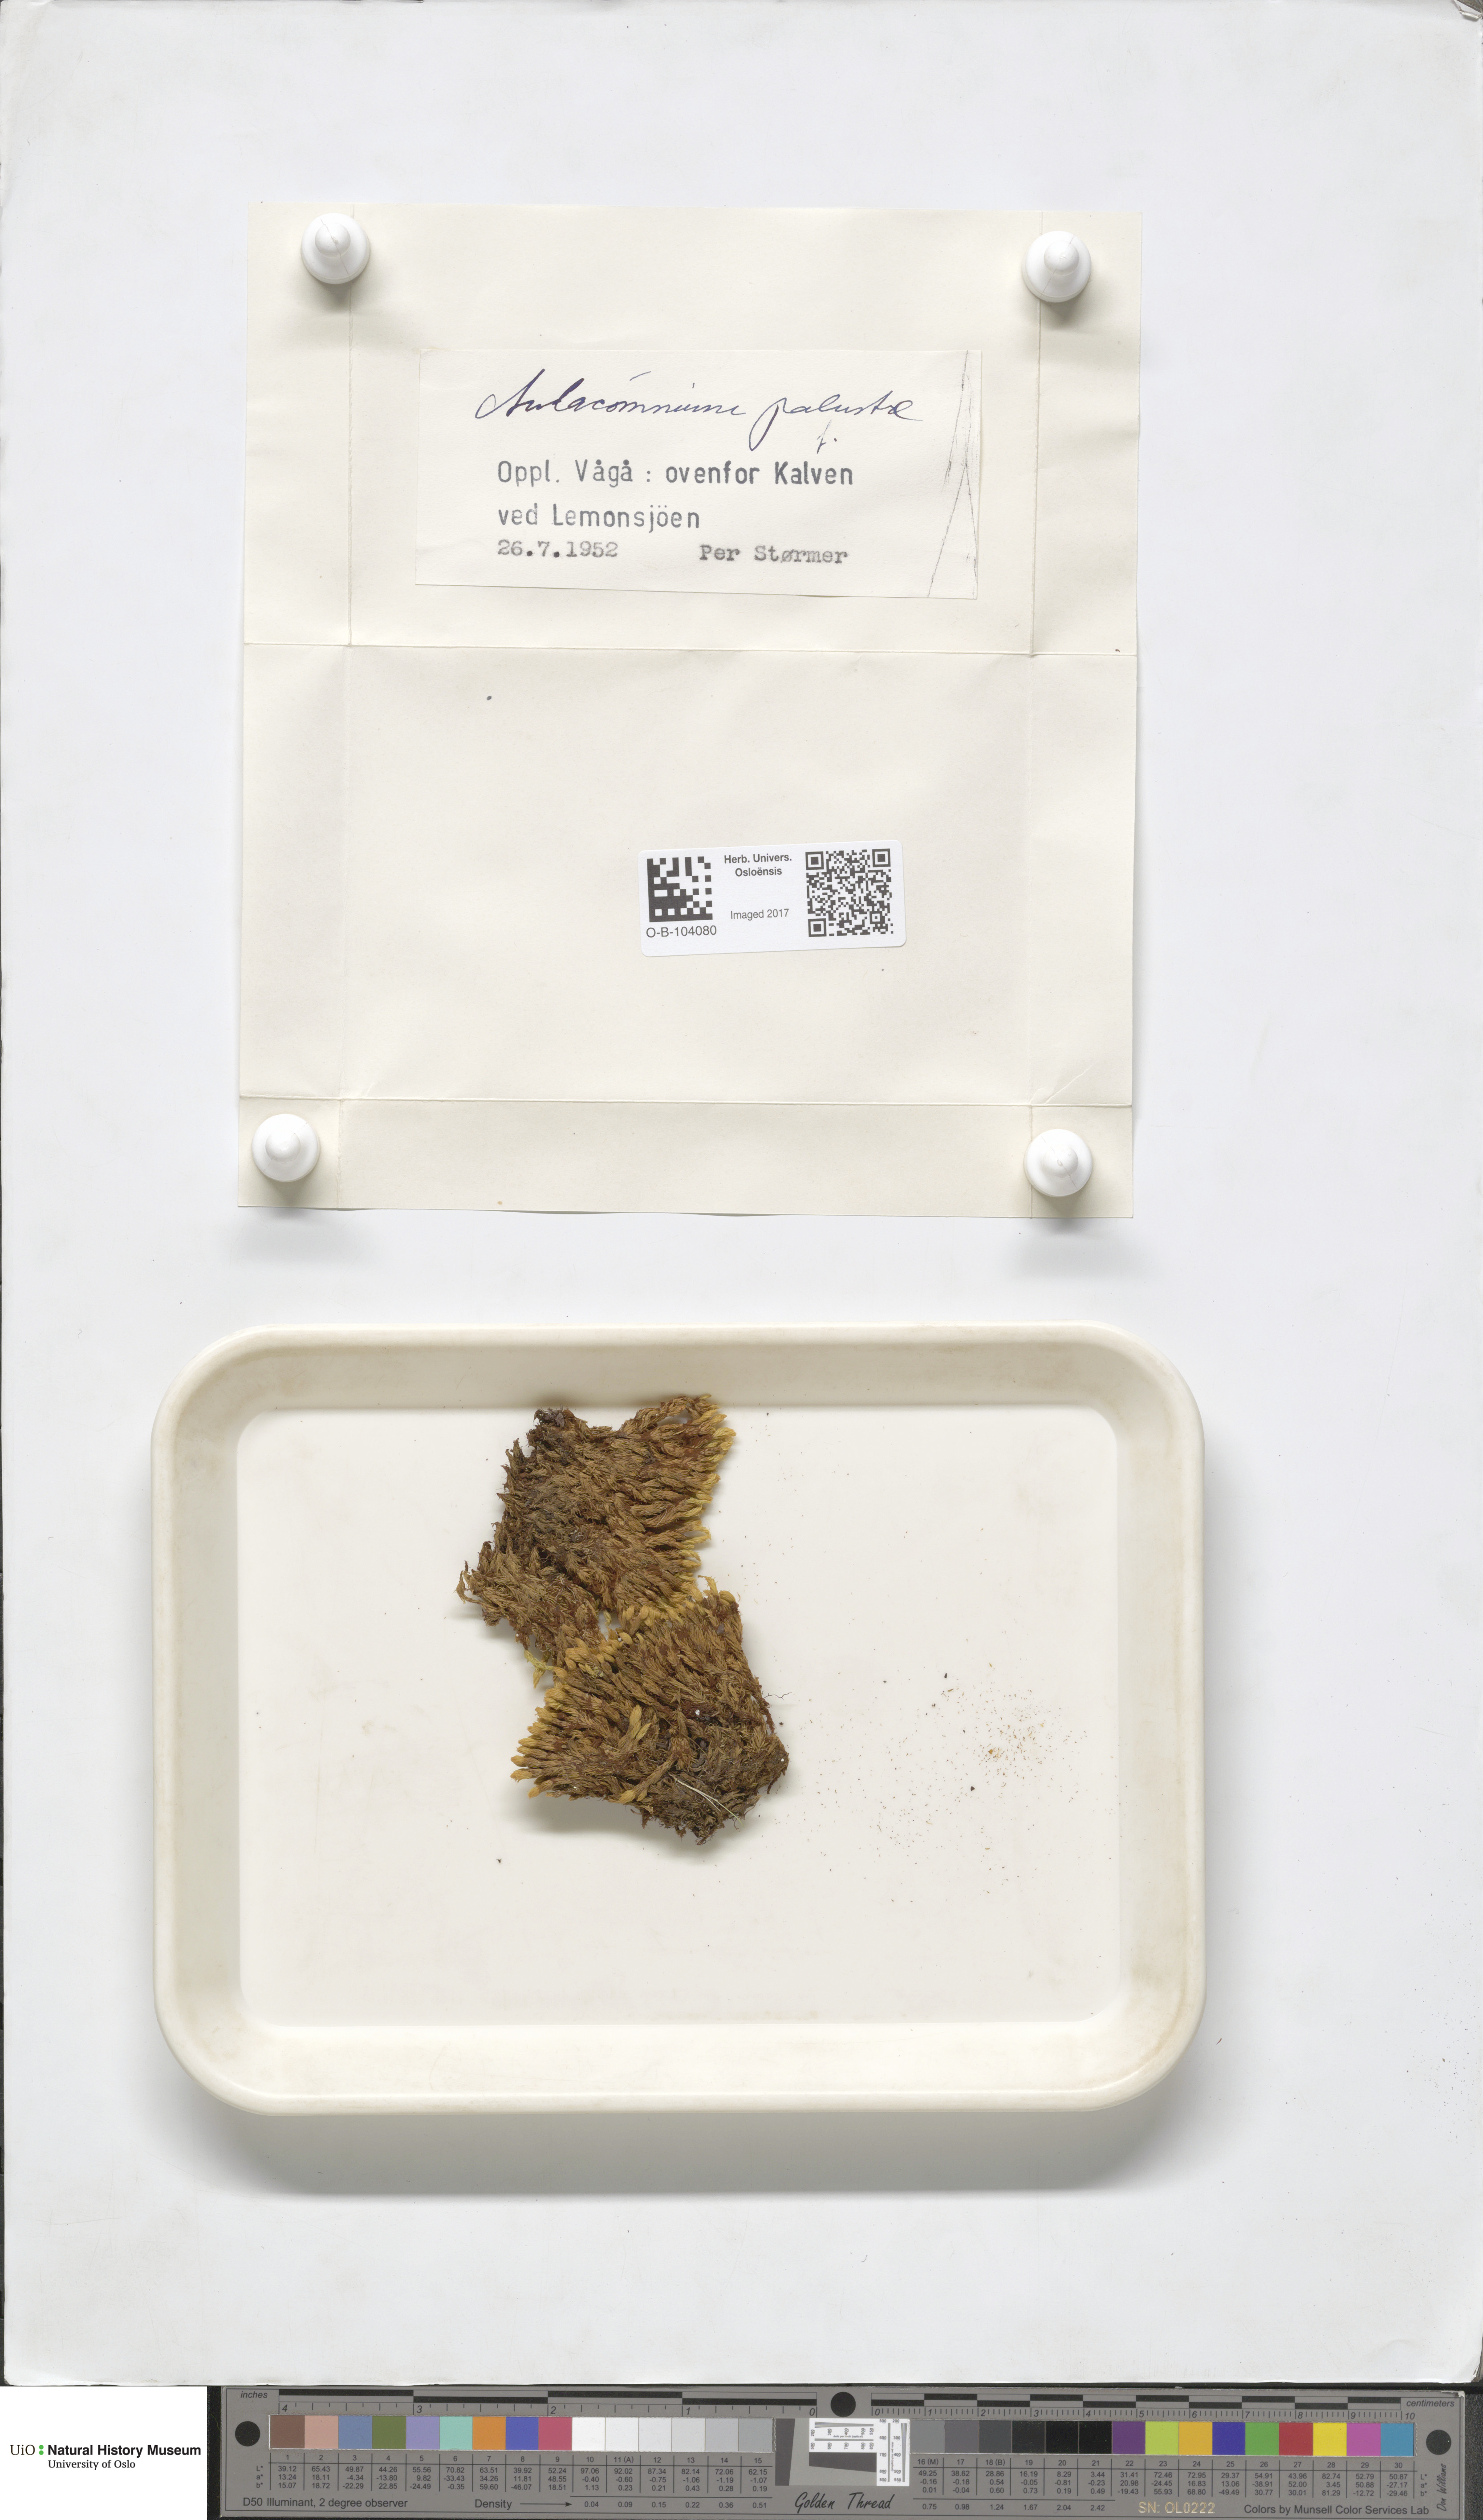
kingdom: Plantae
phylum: Bryophyta
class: Bryopsida
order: Aulacomniales
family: Aulacomniaceae
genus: Aulacomnium
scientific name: Aulacomnium palustre
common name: Bog groove-moss
